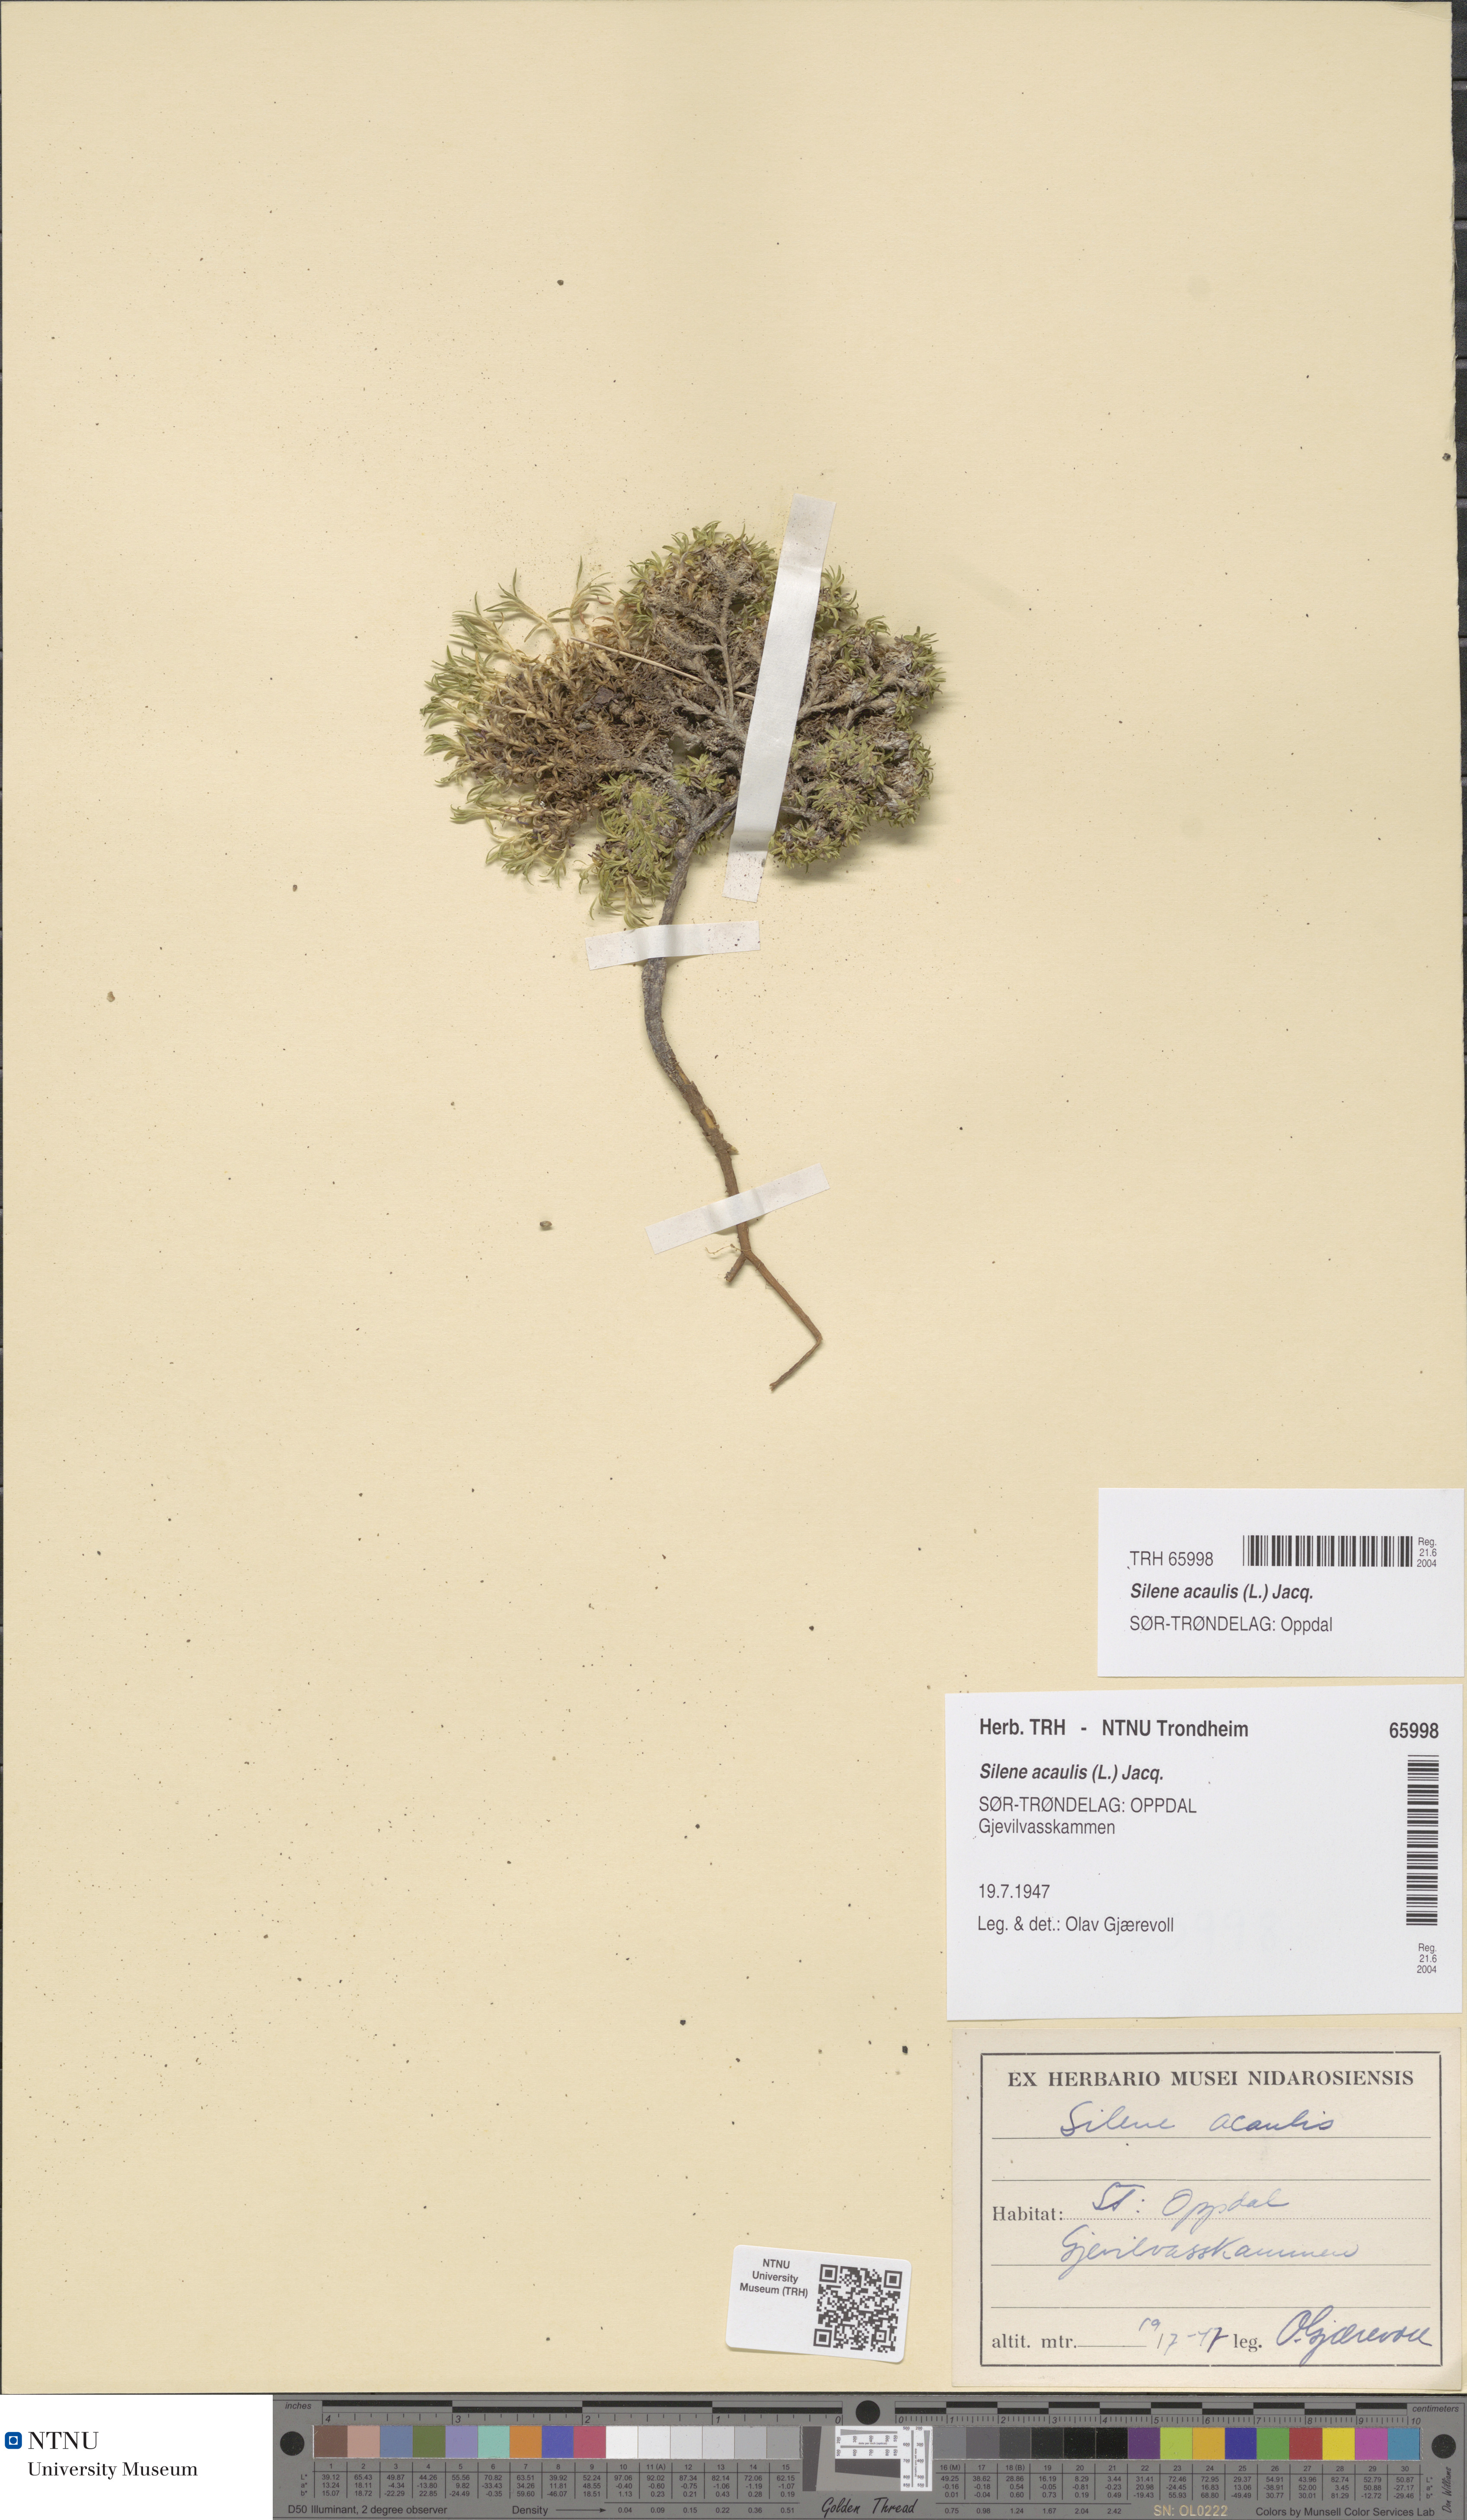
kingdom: Plantae
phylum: Tracheophyta
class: Magnoliopsida
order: Caryophyllales
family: Caryophyllaceae
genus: Silene
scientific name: Silene acaulis
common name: Moss campion
